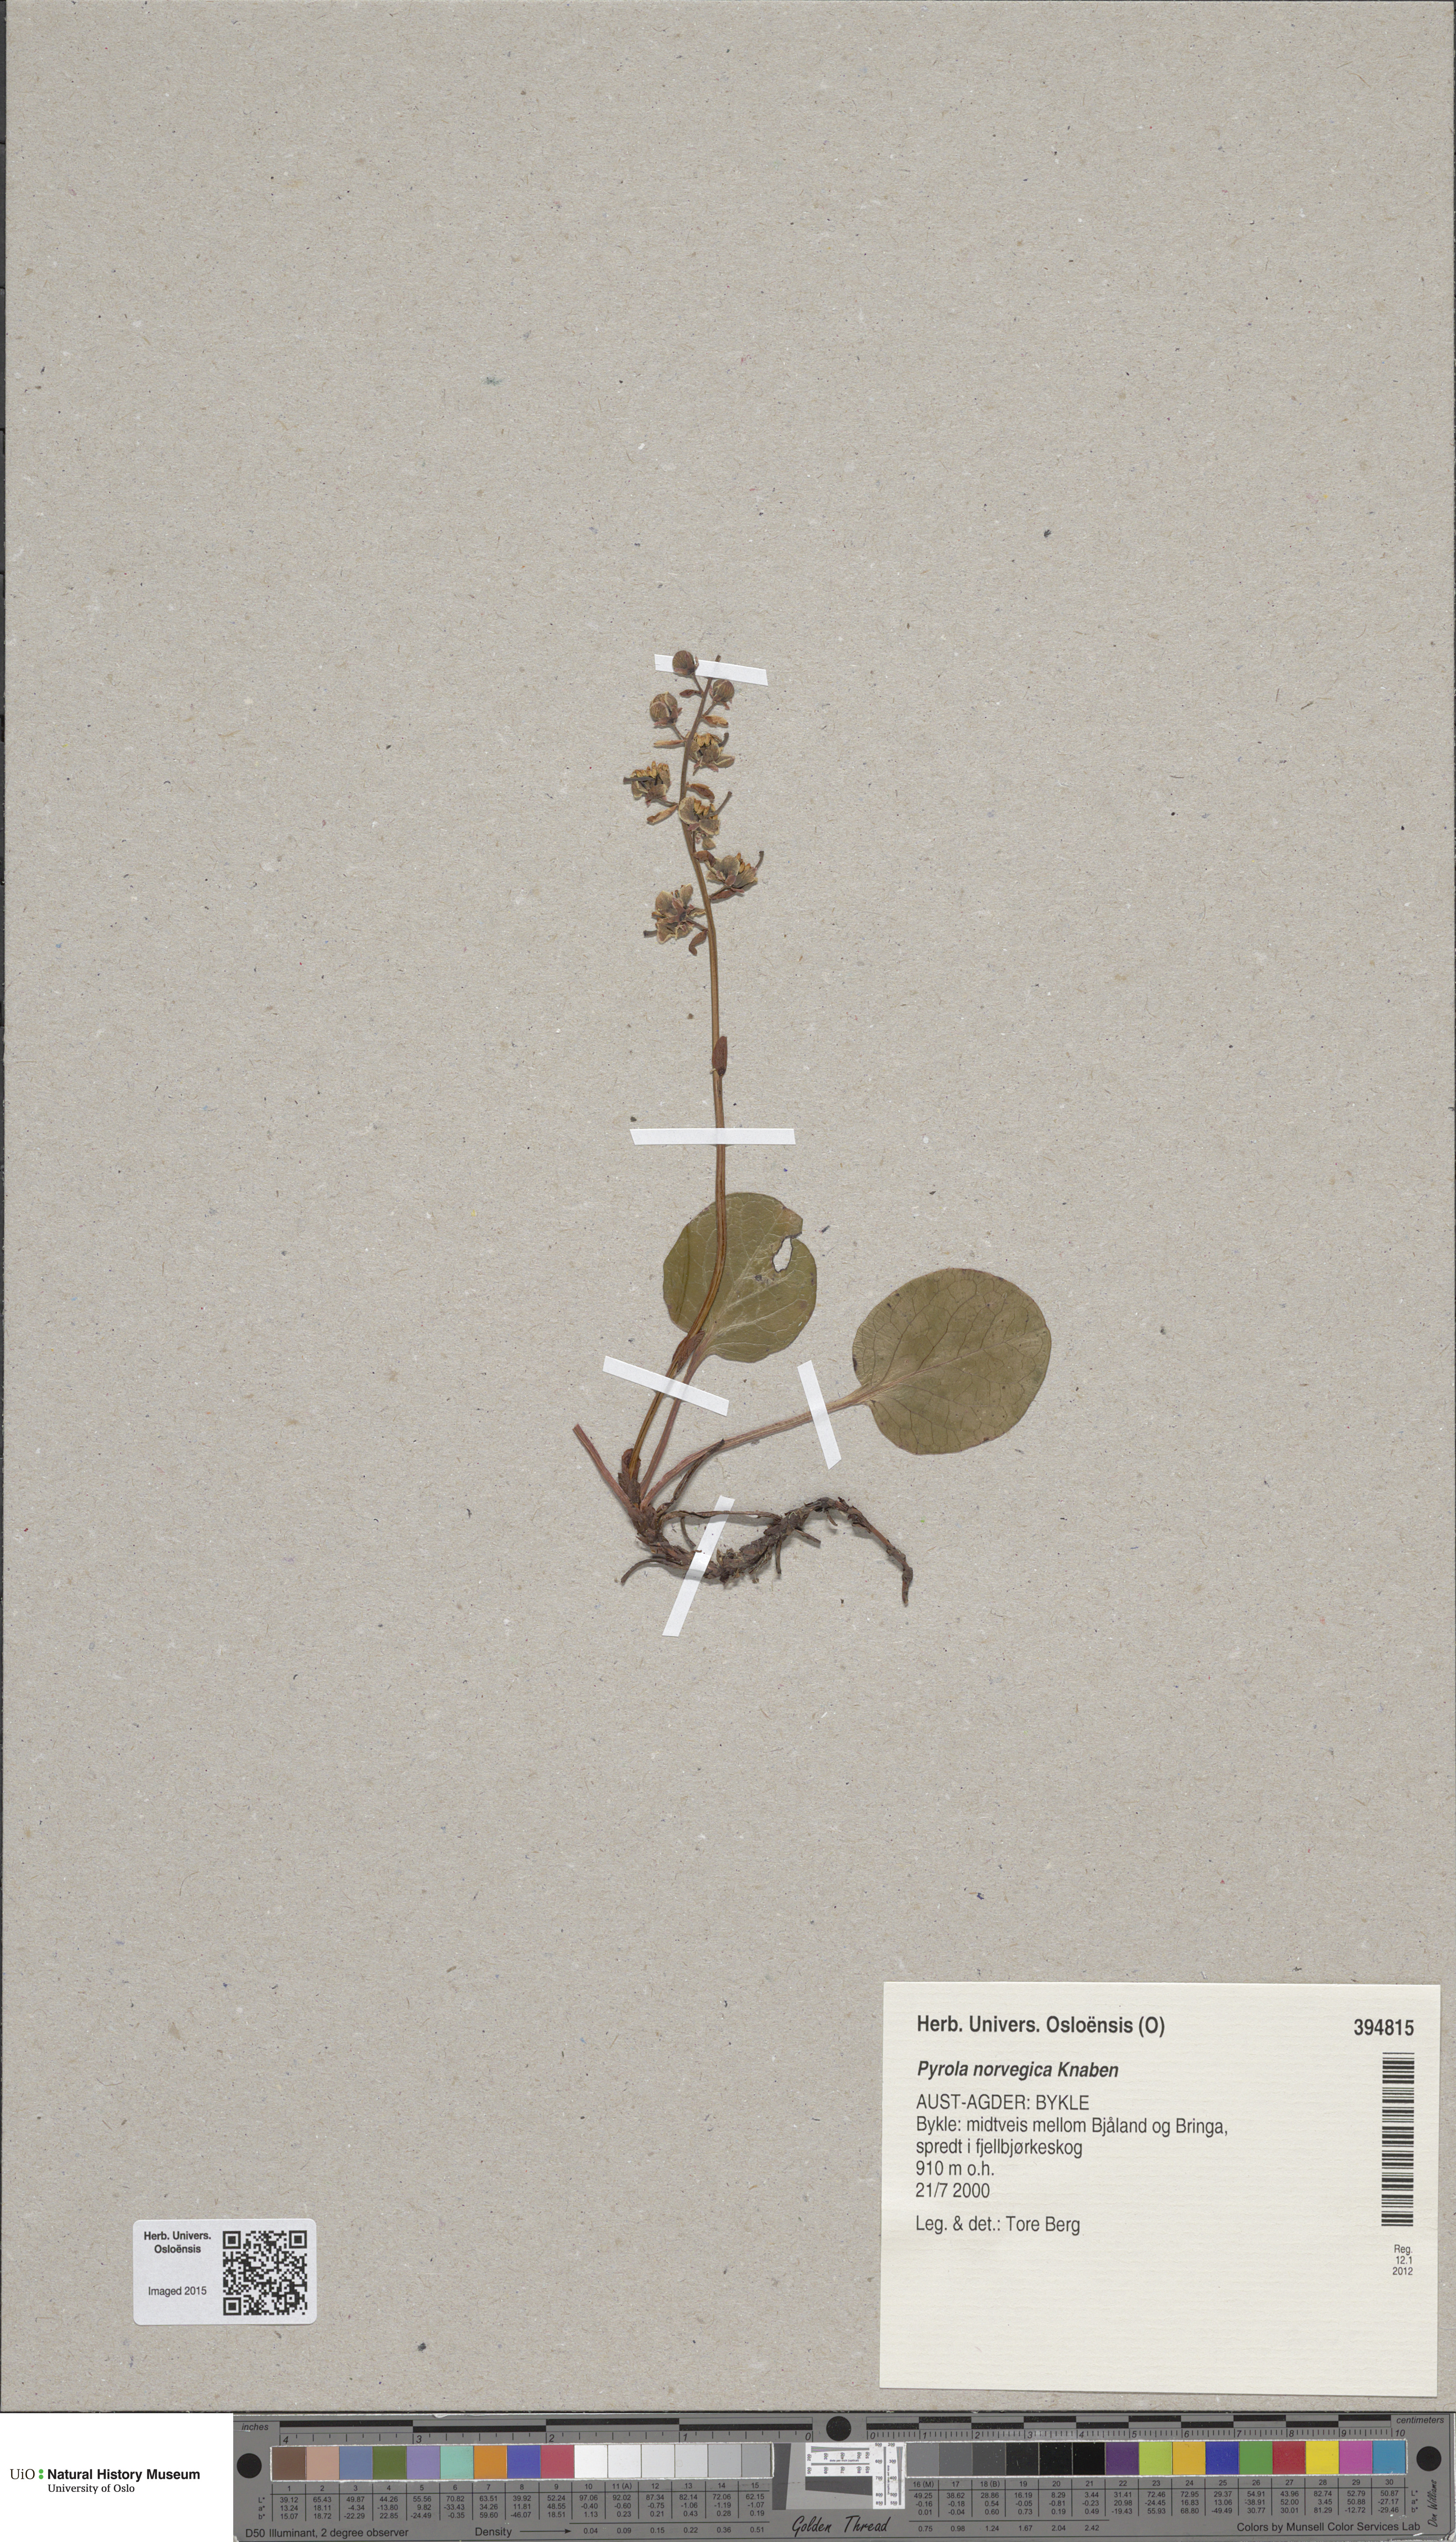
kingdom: Plantae
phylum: Tracheophyta
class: Magnoliopsida
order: Ericales
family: Ericaceae
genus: Pyrola
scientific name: Pyrola rotundifolia
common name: Round-leaved wintergreen
